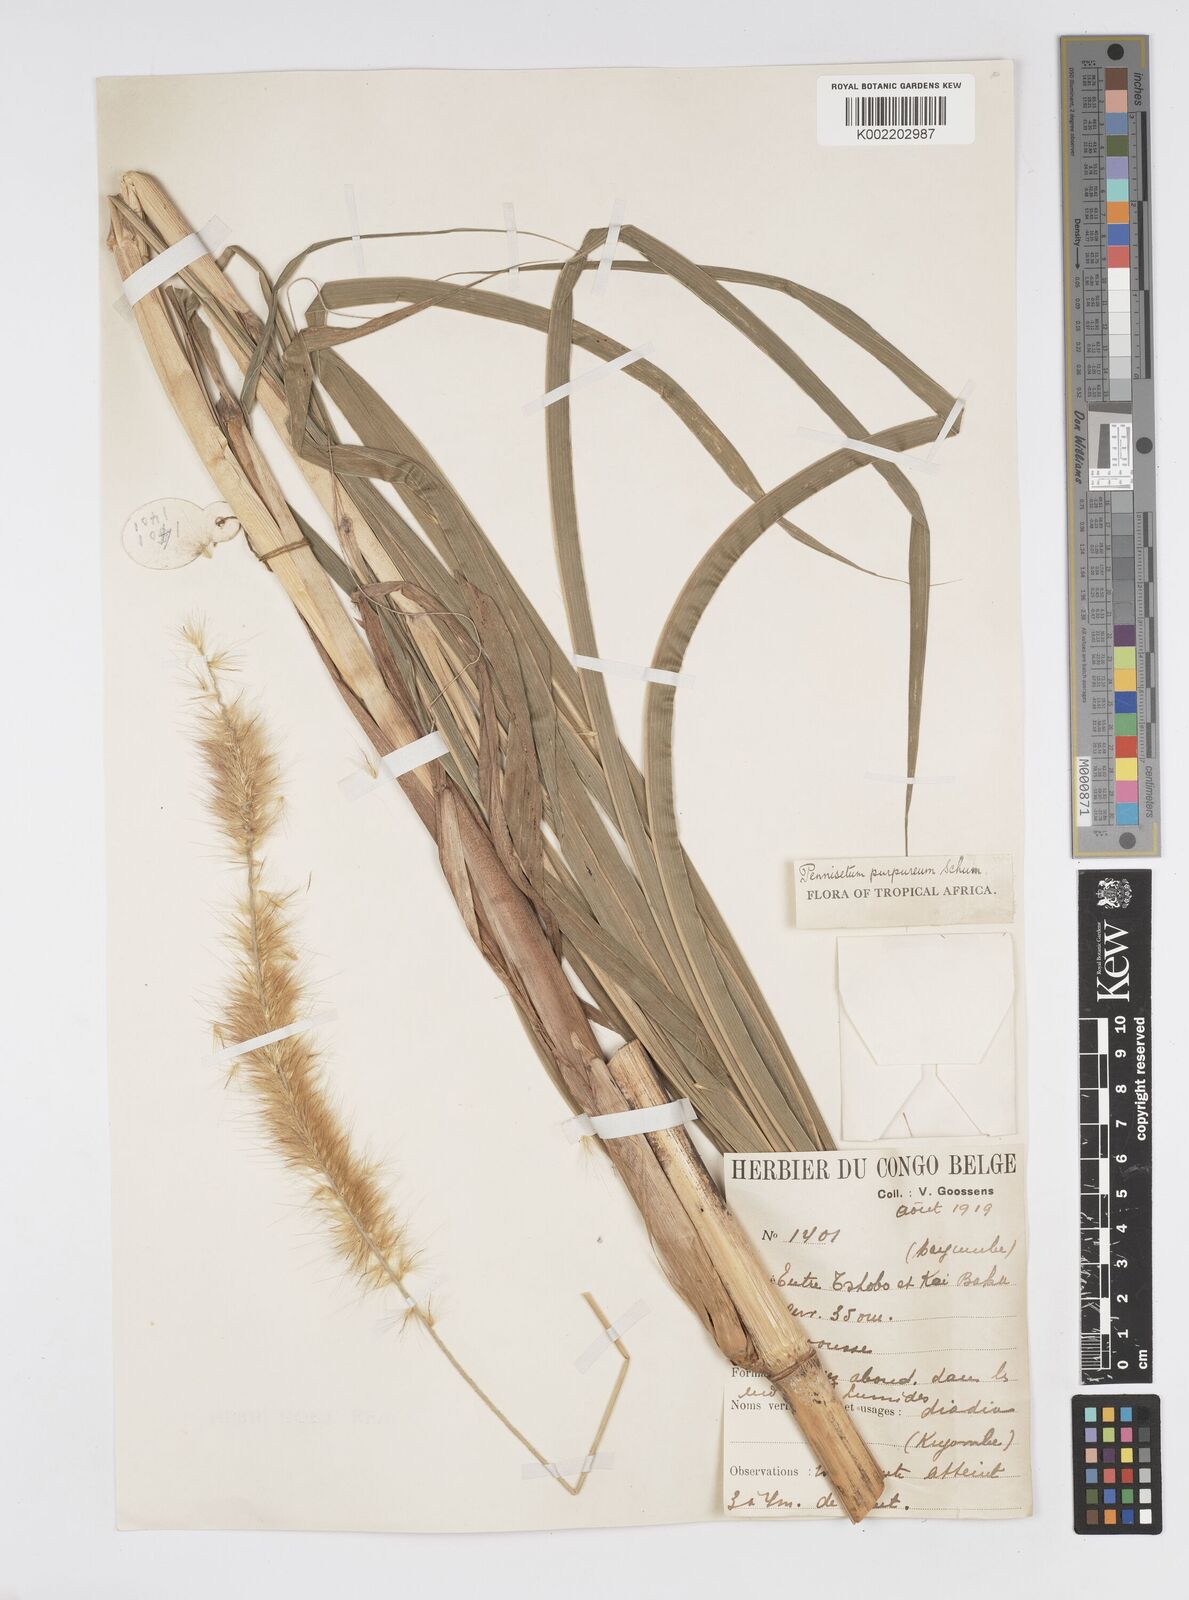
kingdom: Plantae
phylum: Tracheophyta
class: Liliopsida
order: Poales
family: Poaceae
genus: Cenchrus
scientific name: Cenchrus purpureus
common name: Elephant grass
